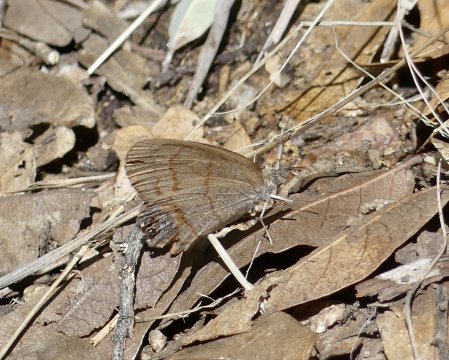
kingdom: Animalia
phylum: Arthropoda
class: Insecta
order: Lepidoptera
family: Nymphalidae
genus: Euptychia
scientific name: Euptychia pyracmon
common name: Nabokov's Satyr
